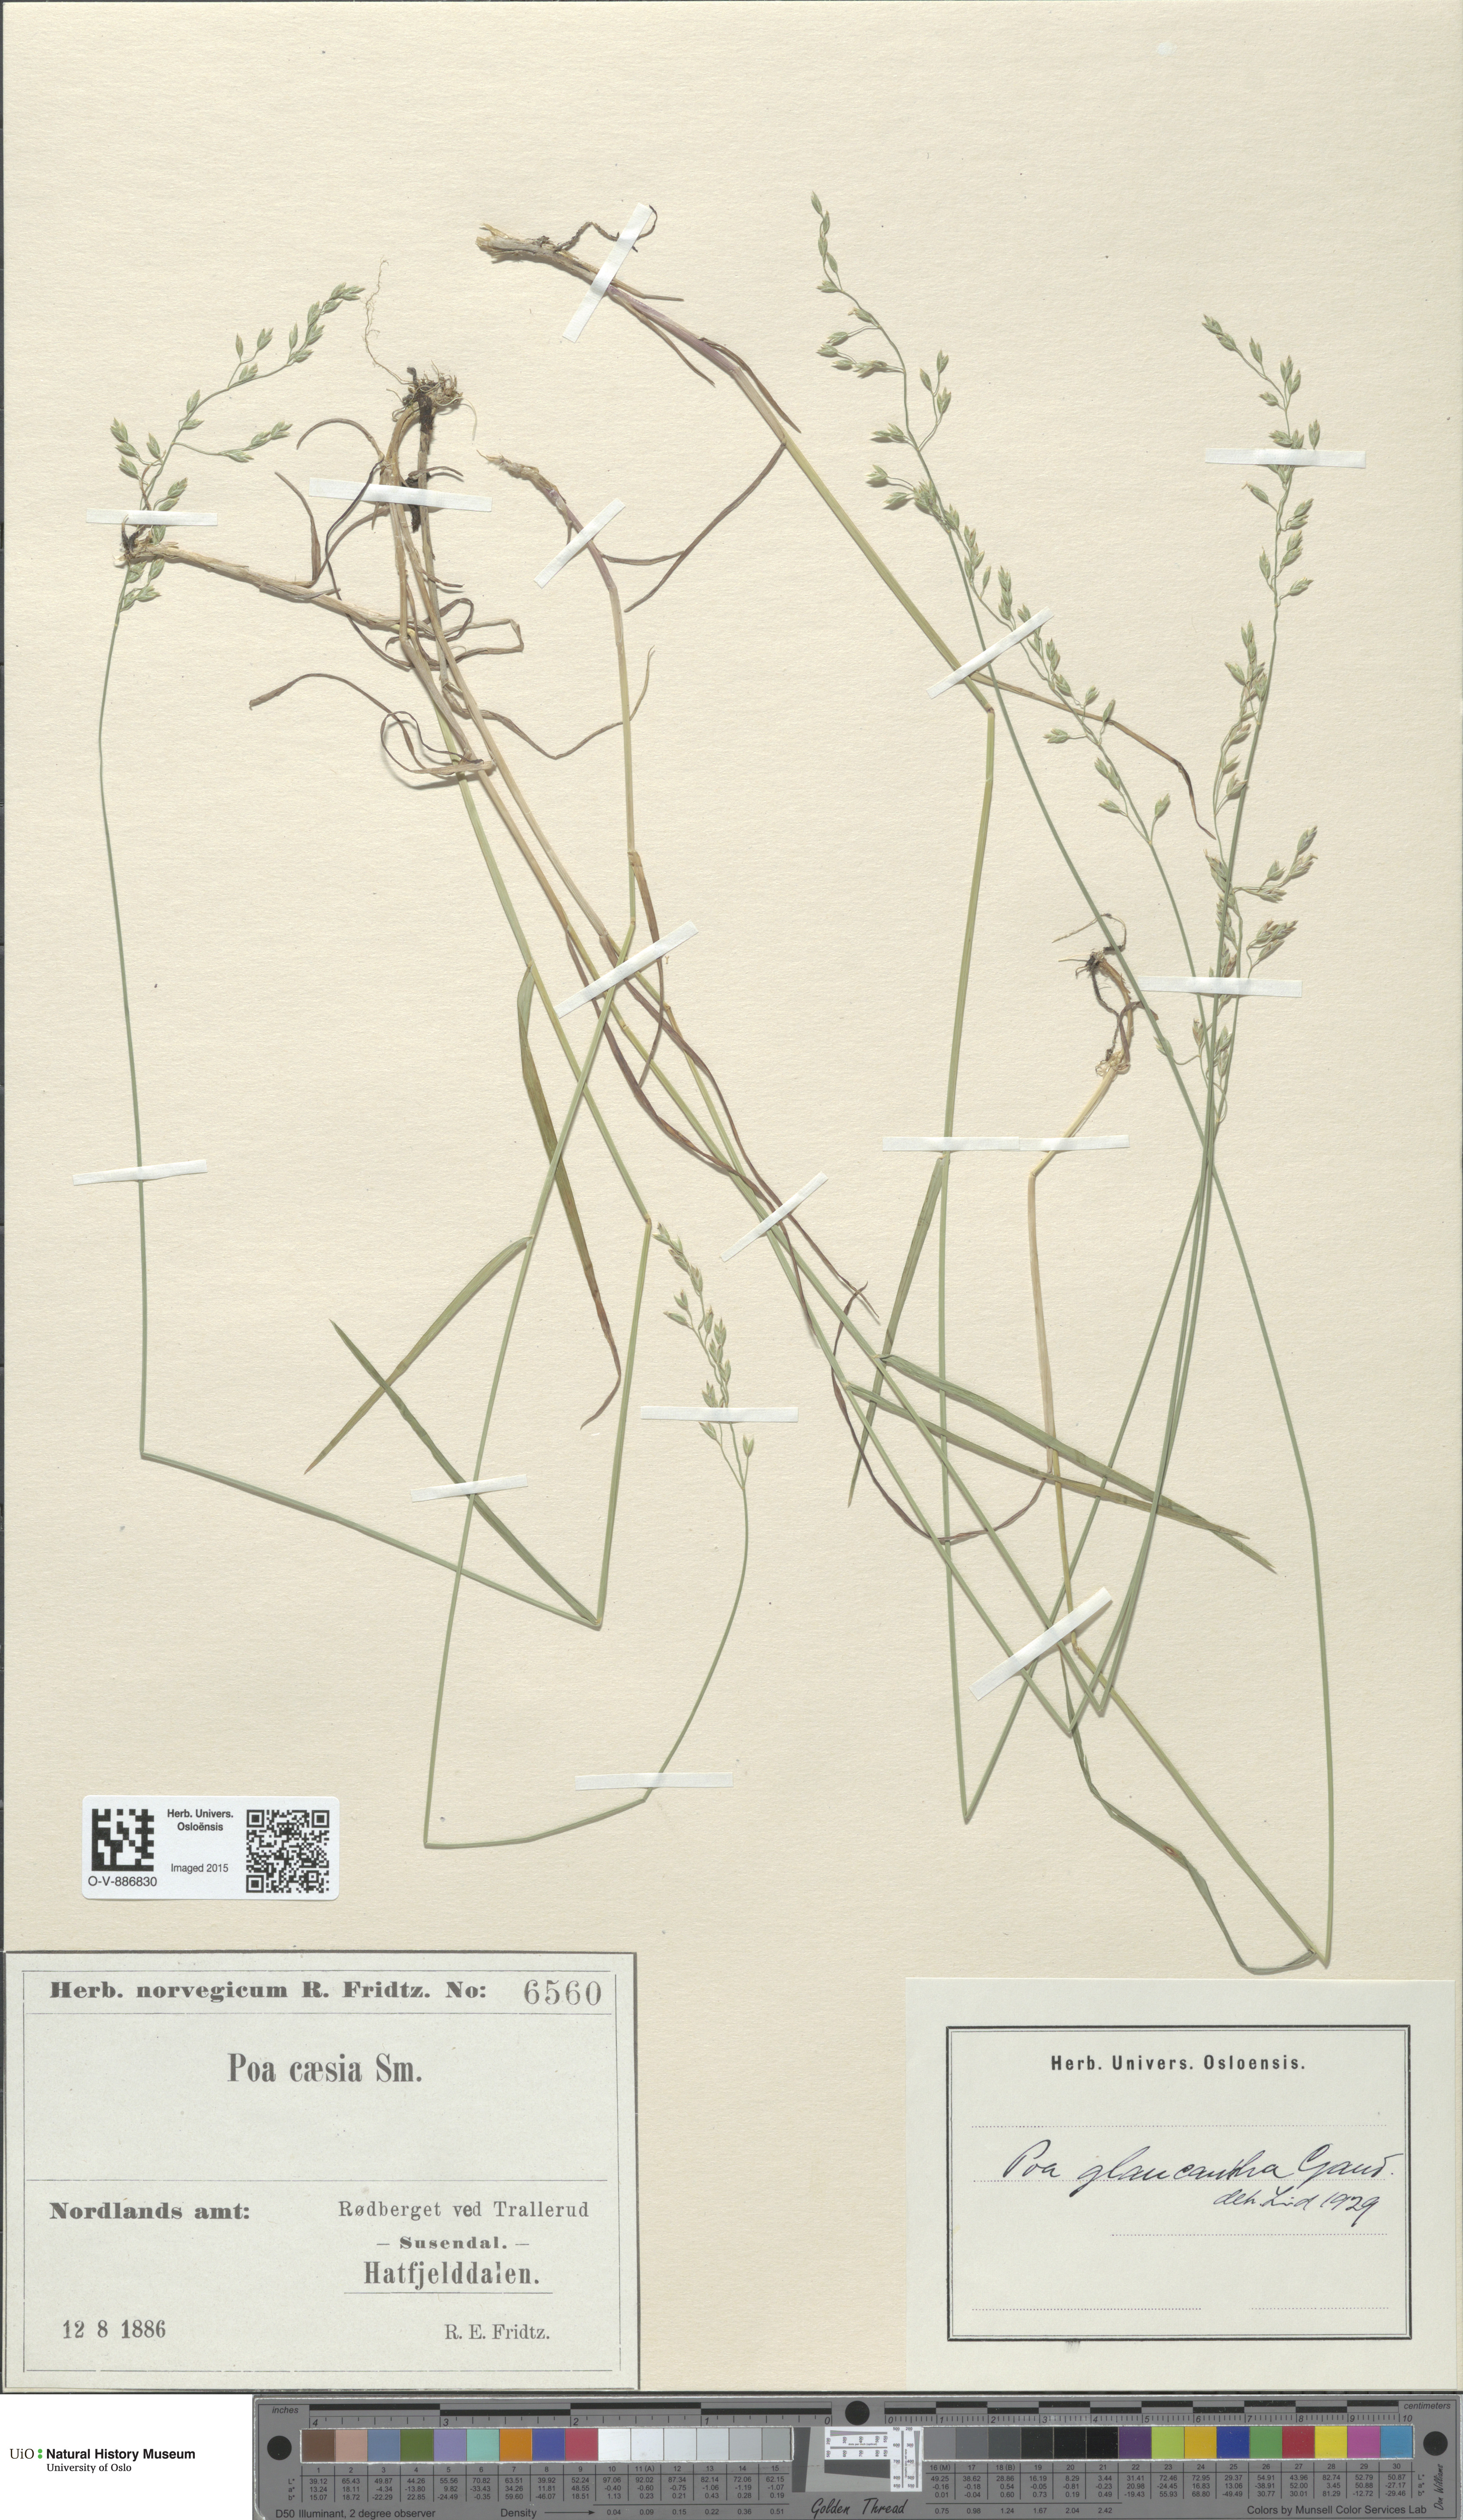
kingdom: Plantae
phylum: Tracheophyta
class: Liliopsida
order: Poales
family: Poaceae
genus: Poa
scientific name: Poa nemoralis
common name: Wood bluegrass
